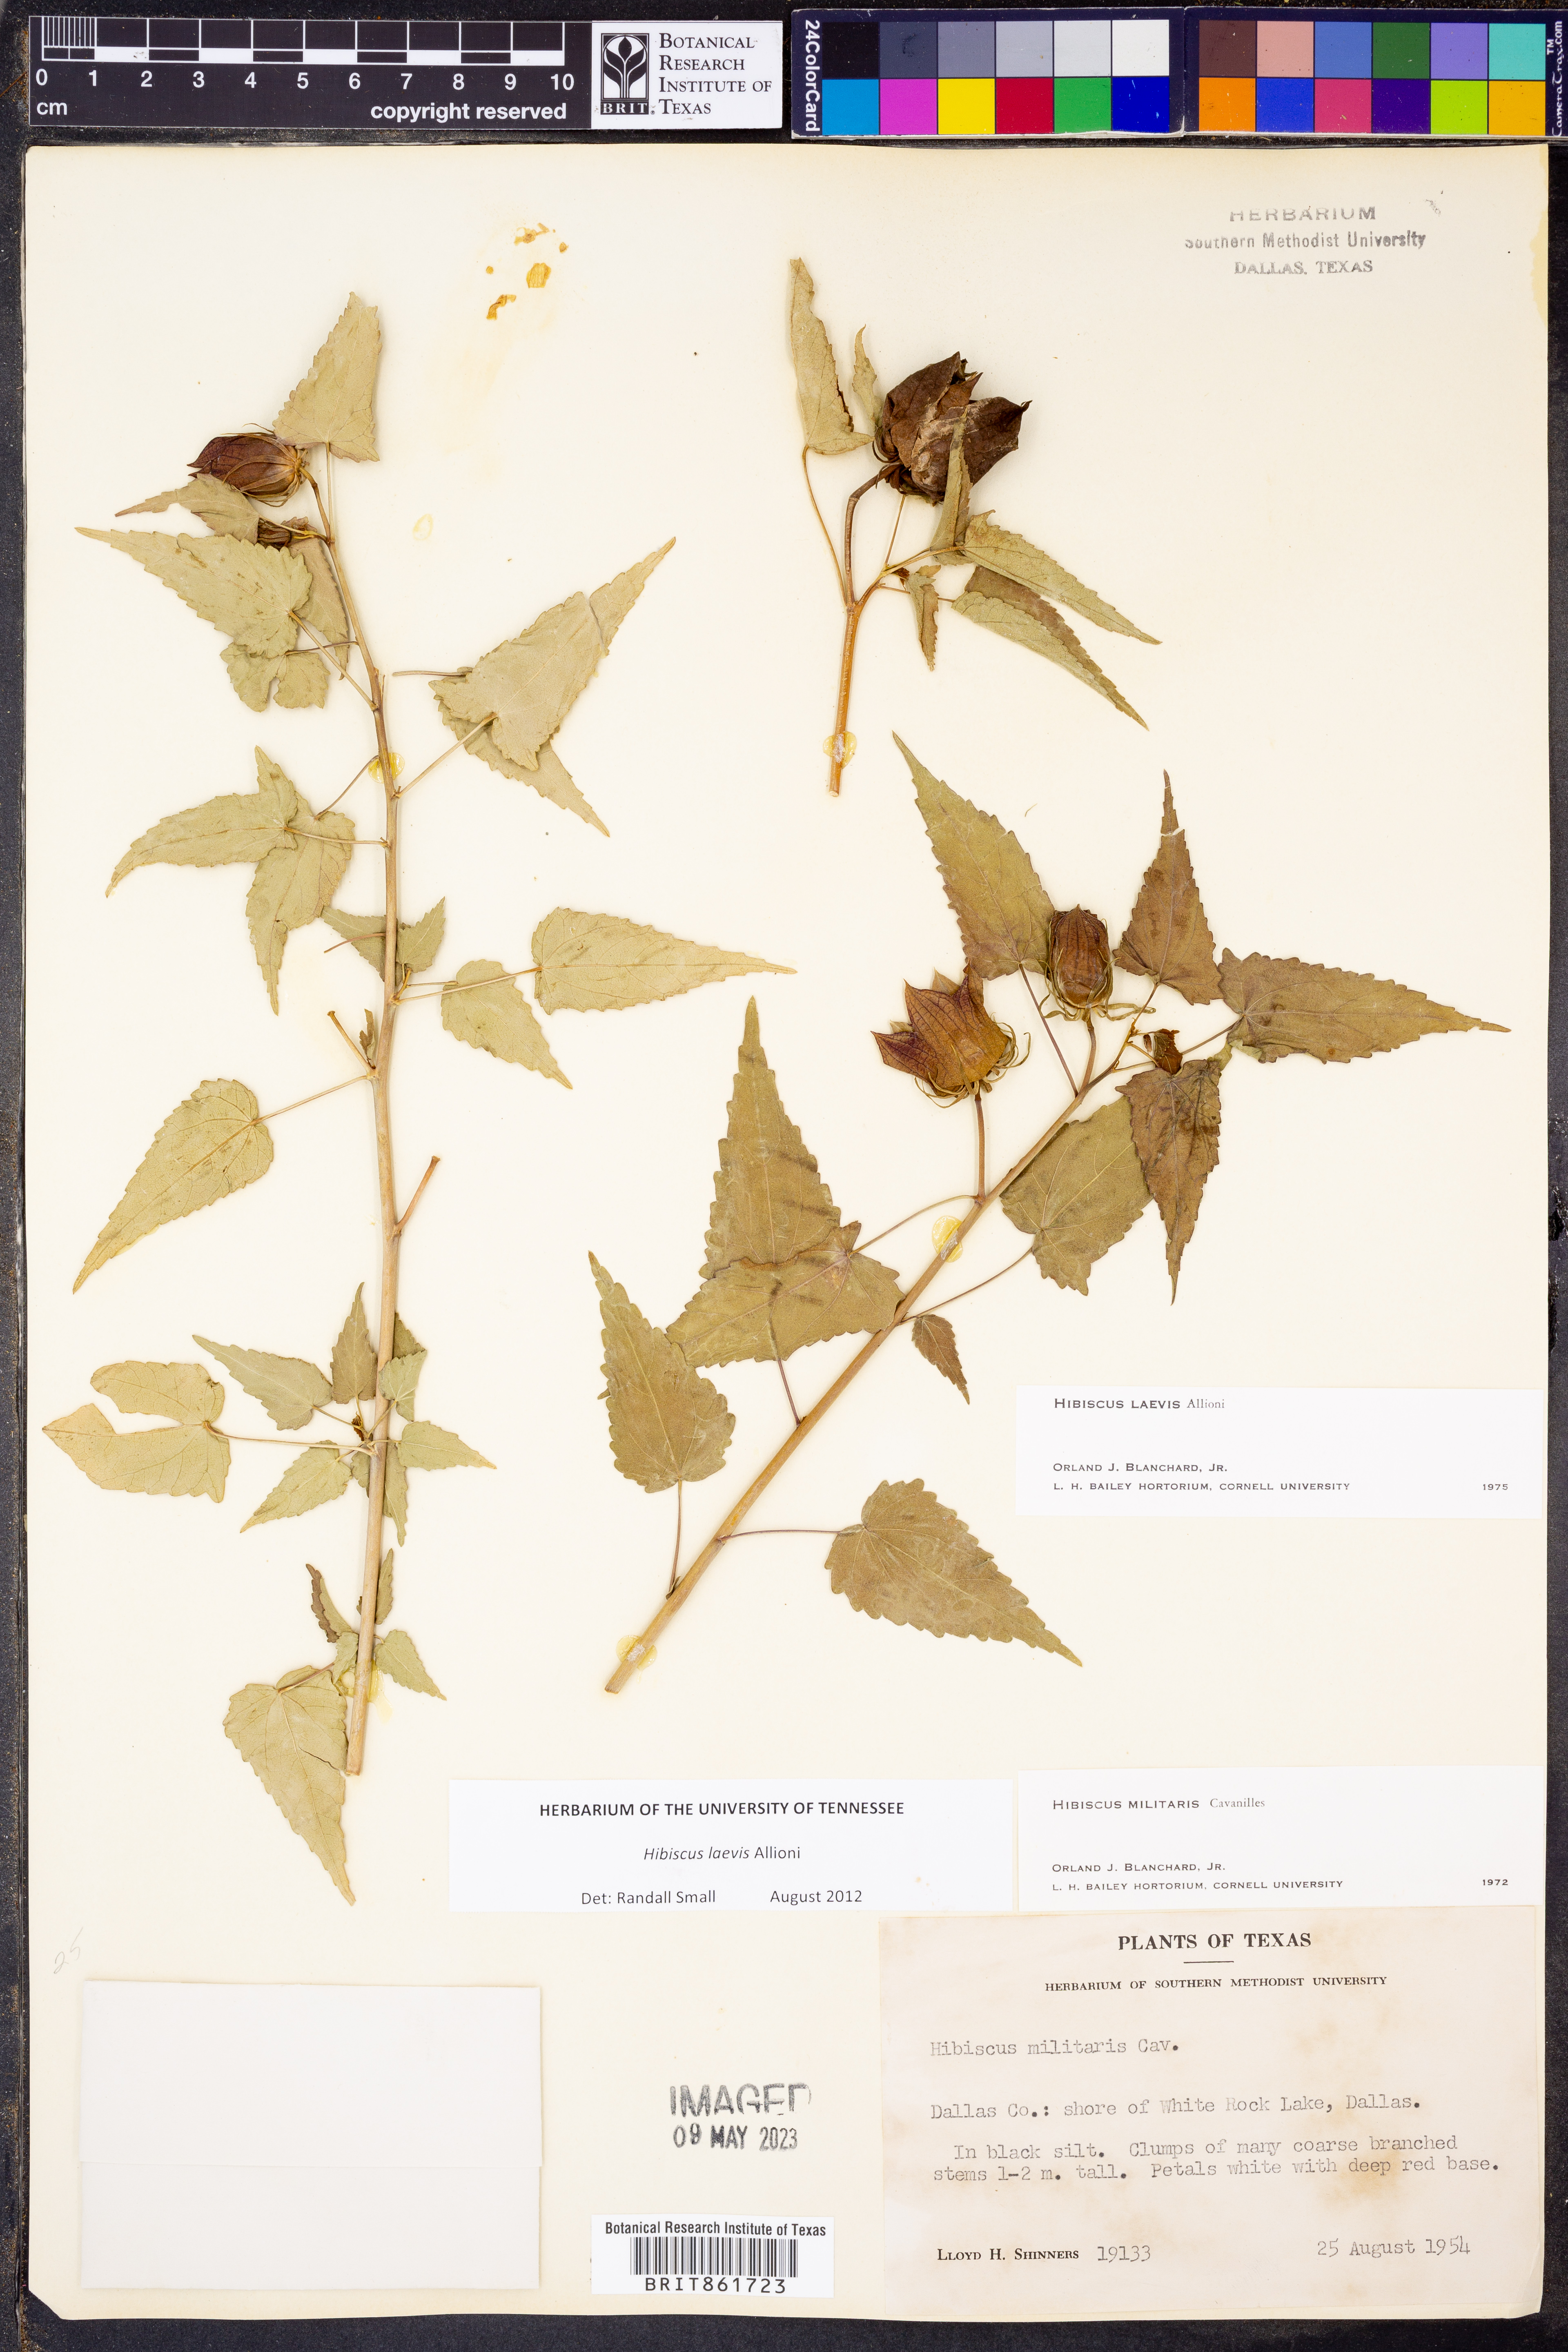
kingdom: Plantae
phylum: Tracheophyta
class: Magnoliopsida
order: Malvales
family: Malvaceae
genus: Hibiscus
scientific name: Hibiscus laevis
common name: Scarlet rose-mallow
